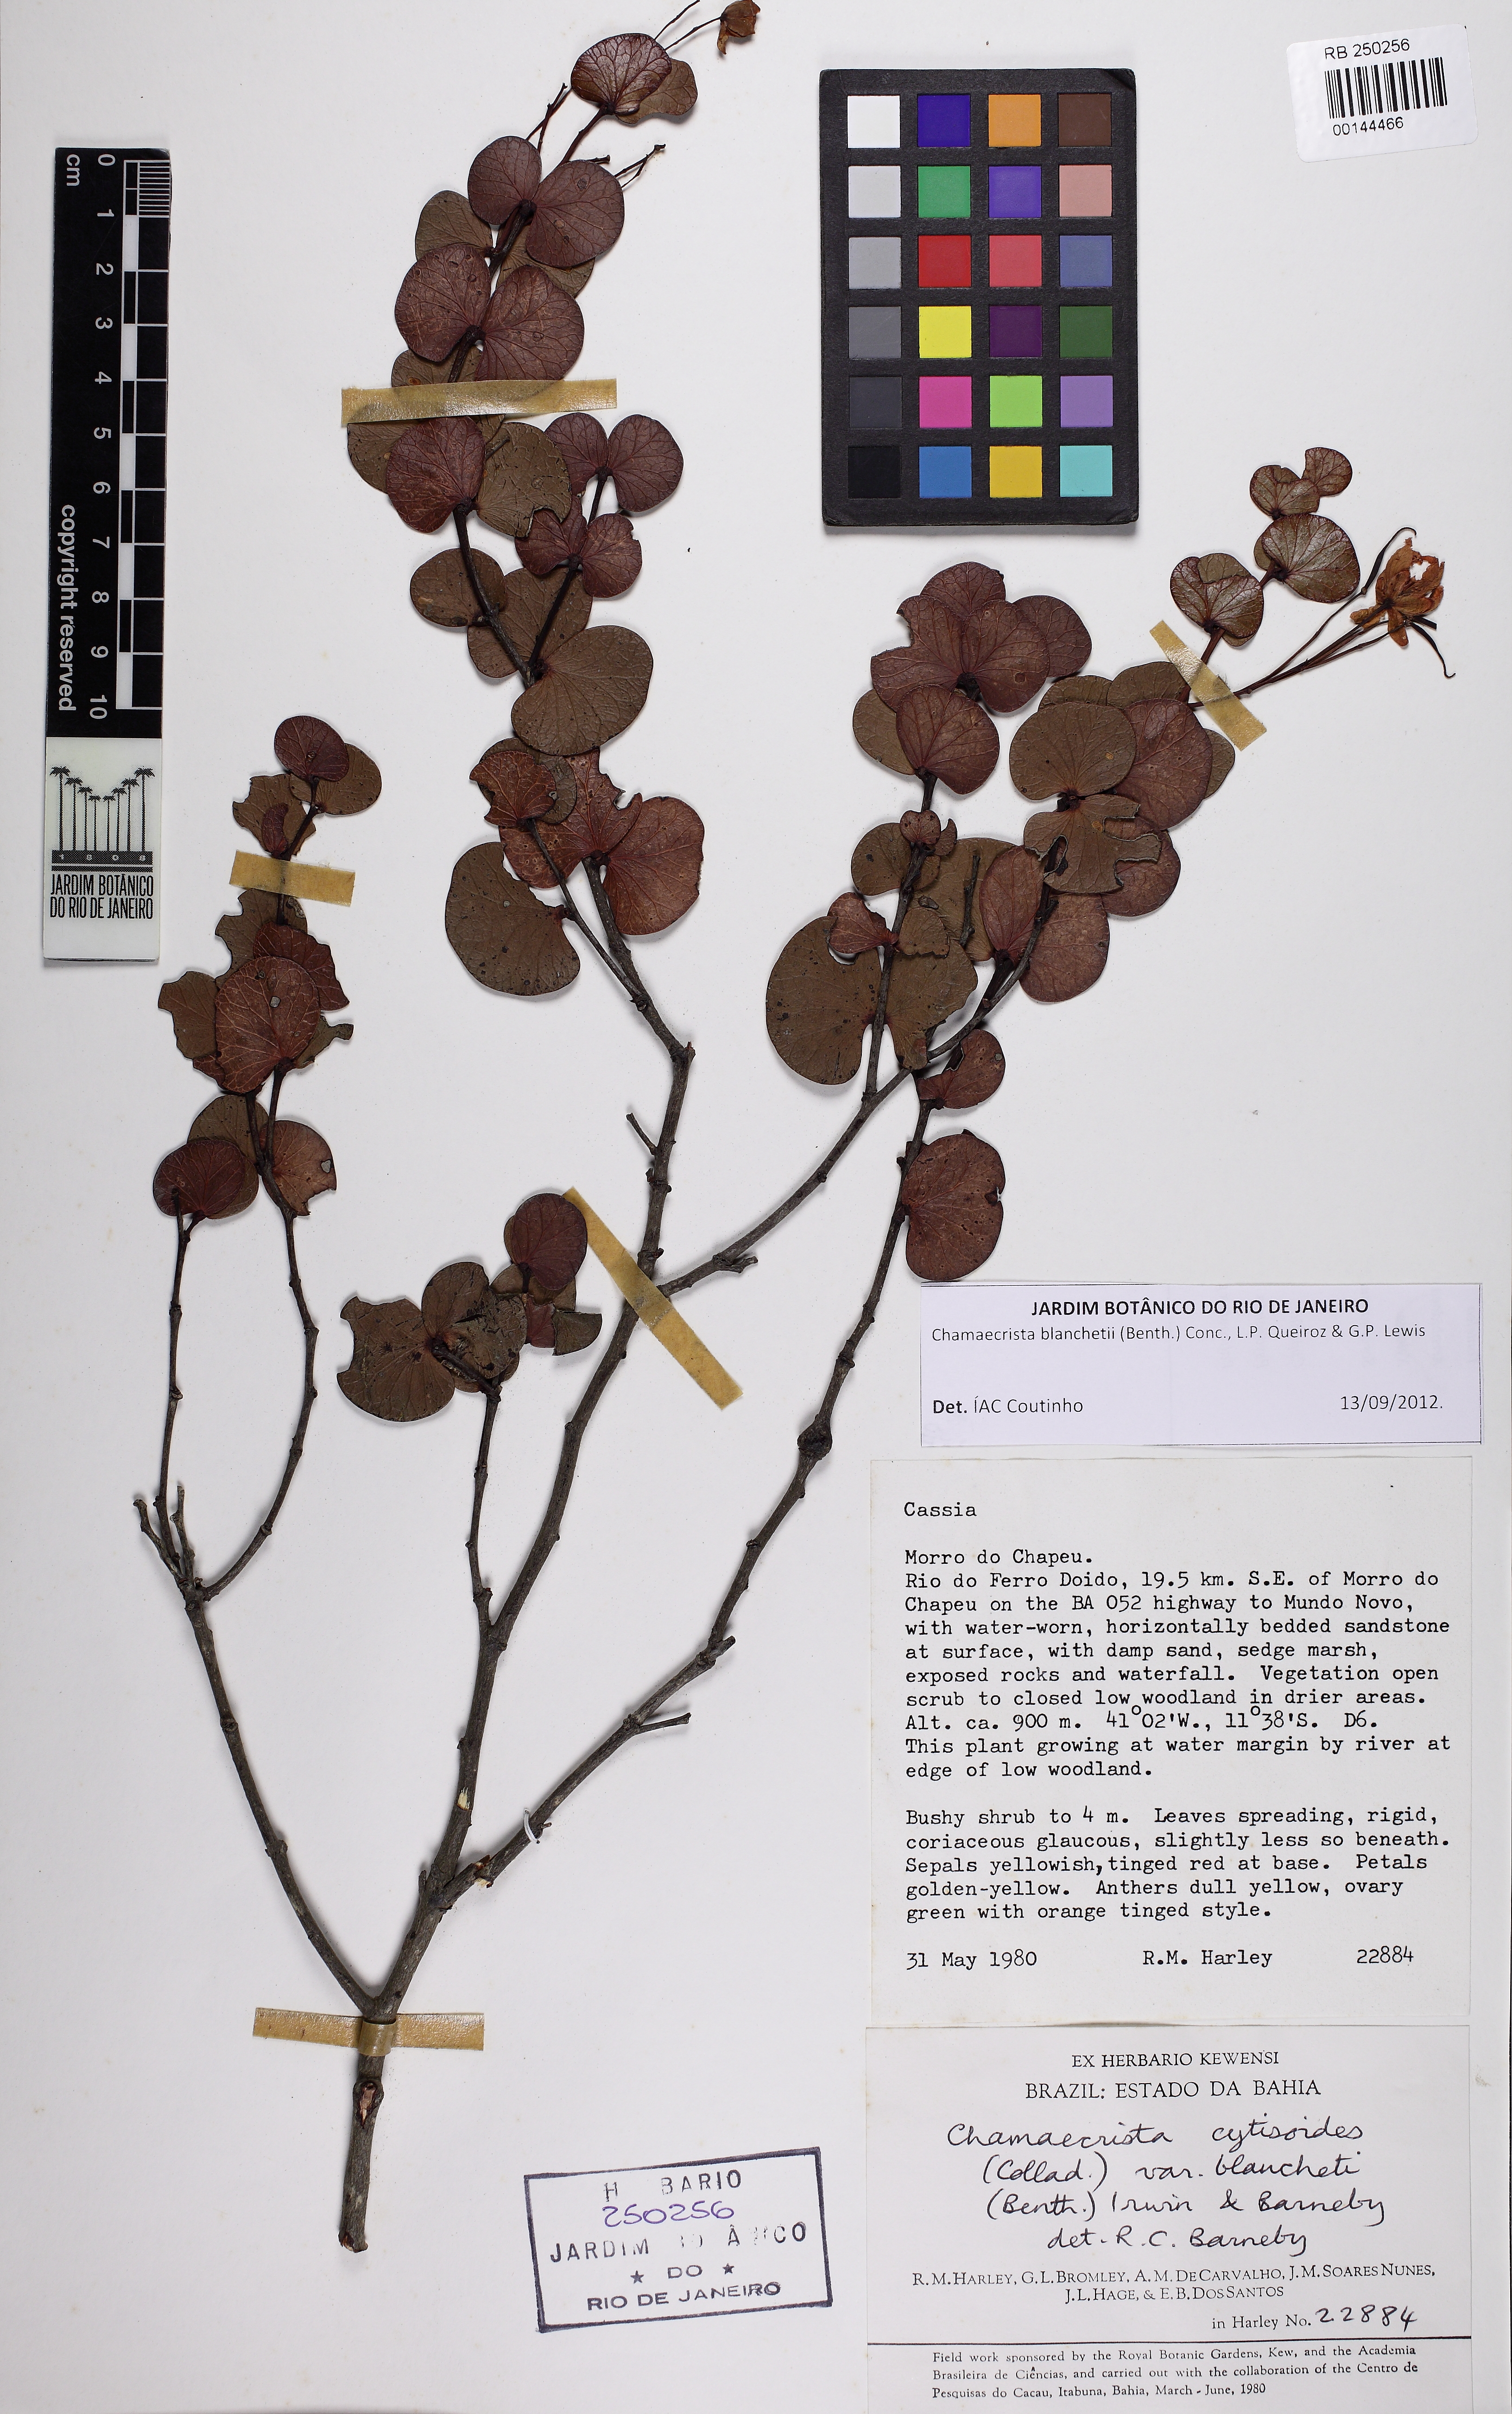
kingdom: Plantae
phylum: Tracheophyta
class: Magnoliopsida
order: Fabales
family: Fabaceae
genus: Chamaecrista
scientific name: Chamaecrista blanchetii
